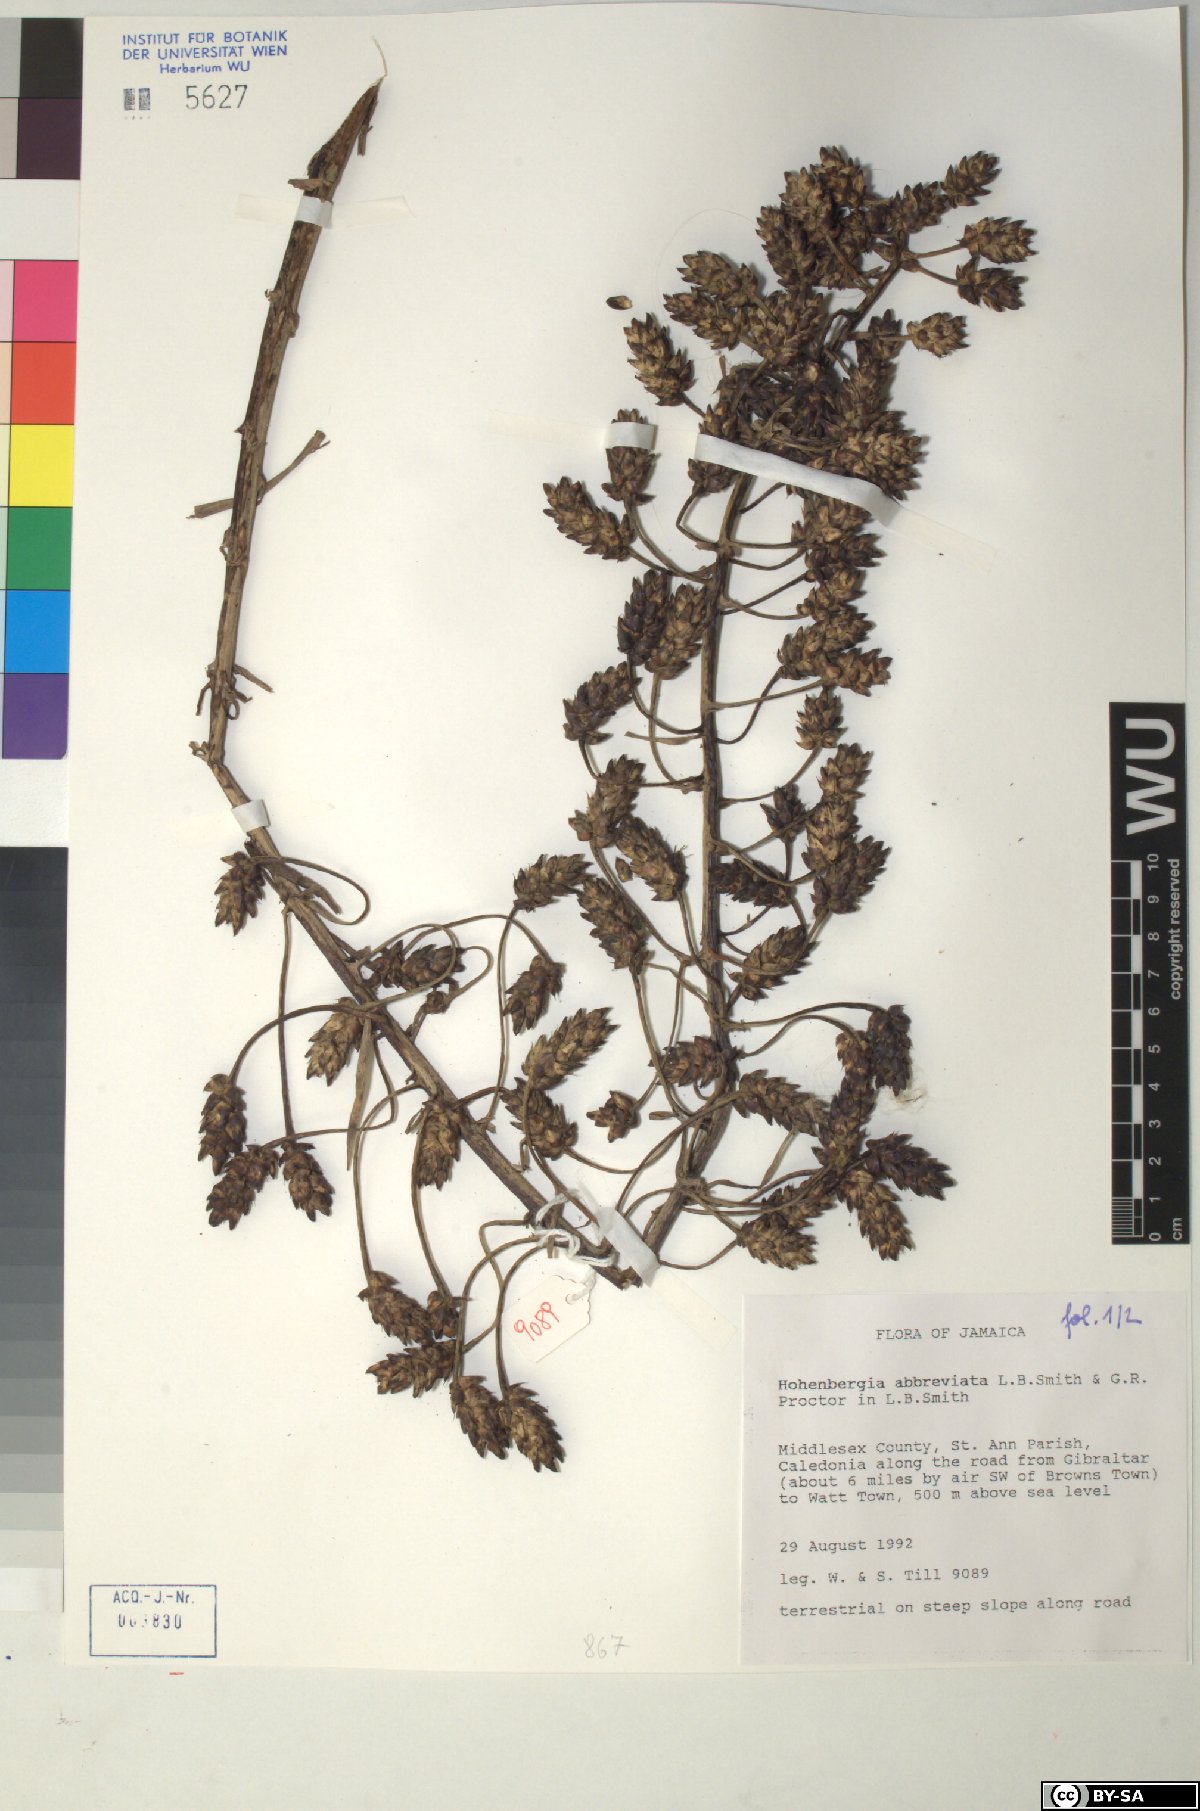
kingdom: Plantae
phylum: Tracheophyta
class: Liliopsida
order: Poales
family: Bromeliaceae
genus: Wittmackia
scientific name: Wittmackia abbreviata
